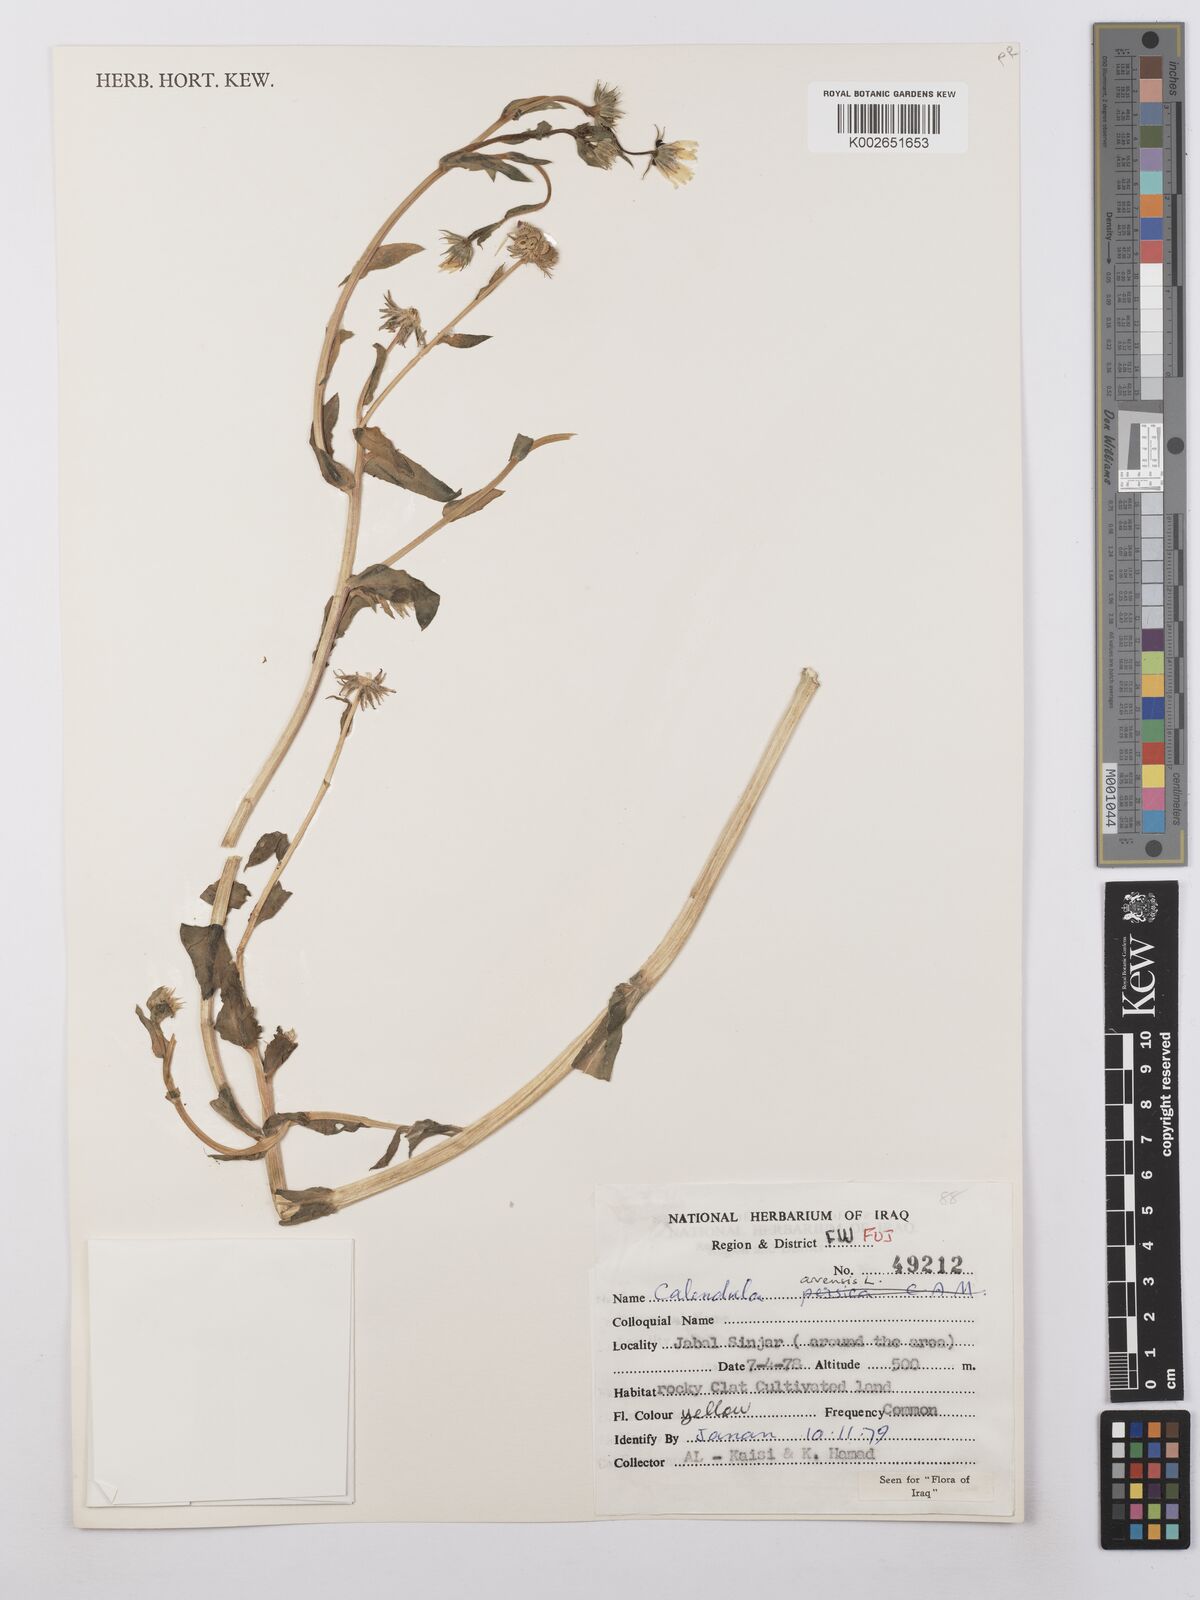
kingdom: Plantae
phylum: Tracheophyta
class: Magnoliopsida
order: Asterales
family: Asteraceae
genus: Calendula
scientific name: Calendula arvensis
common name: Field marigold
